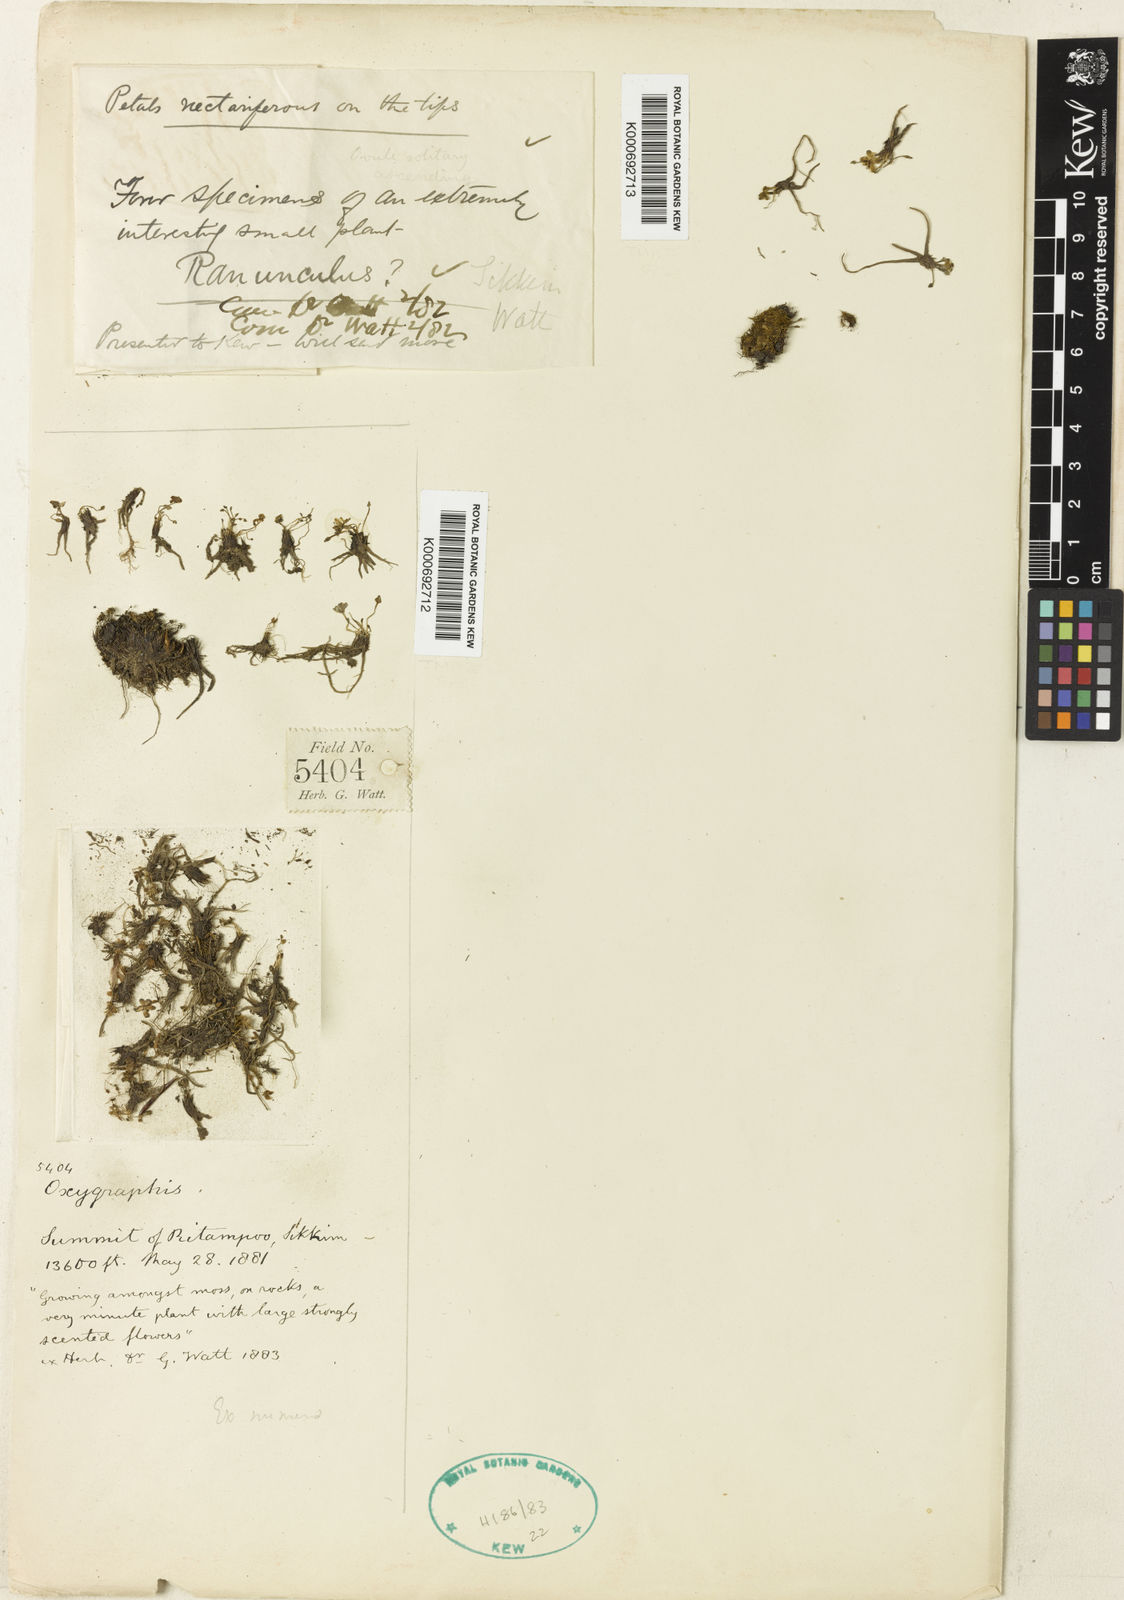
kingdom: Plantae
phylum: Tracheophyta
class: Magnoliopsida
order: Ranunculales
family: Ranunculaceae
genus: Ranunculus
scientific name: Ranunculus
